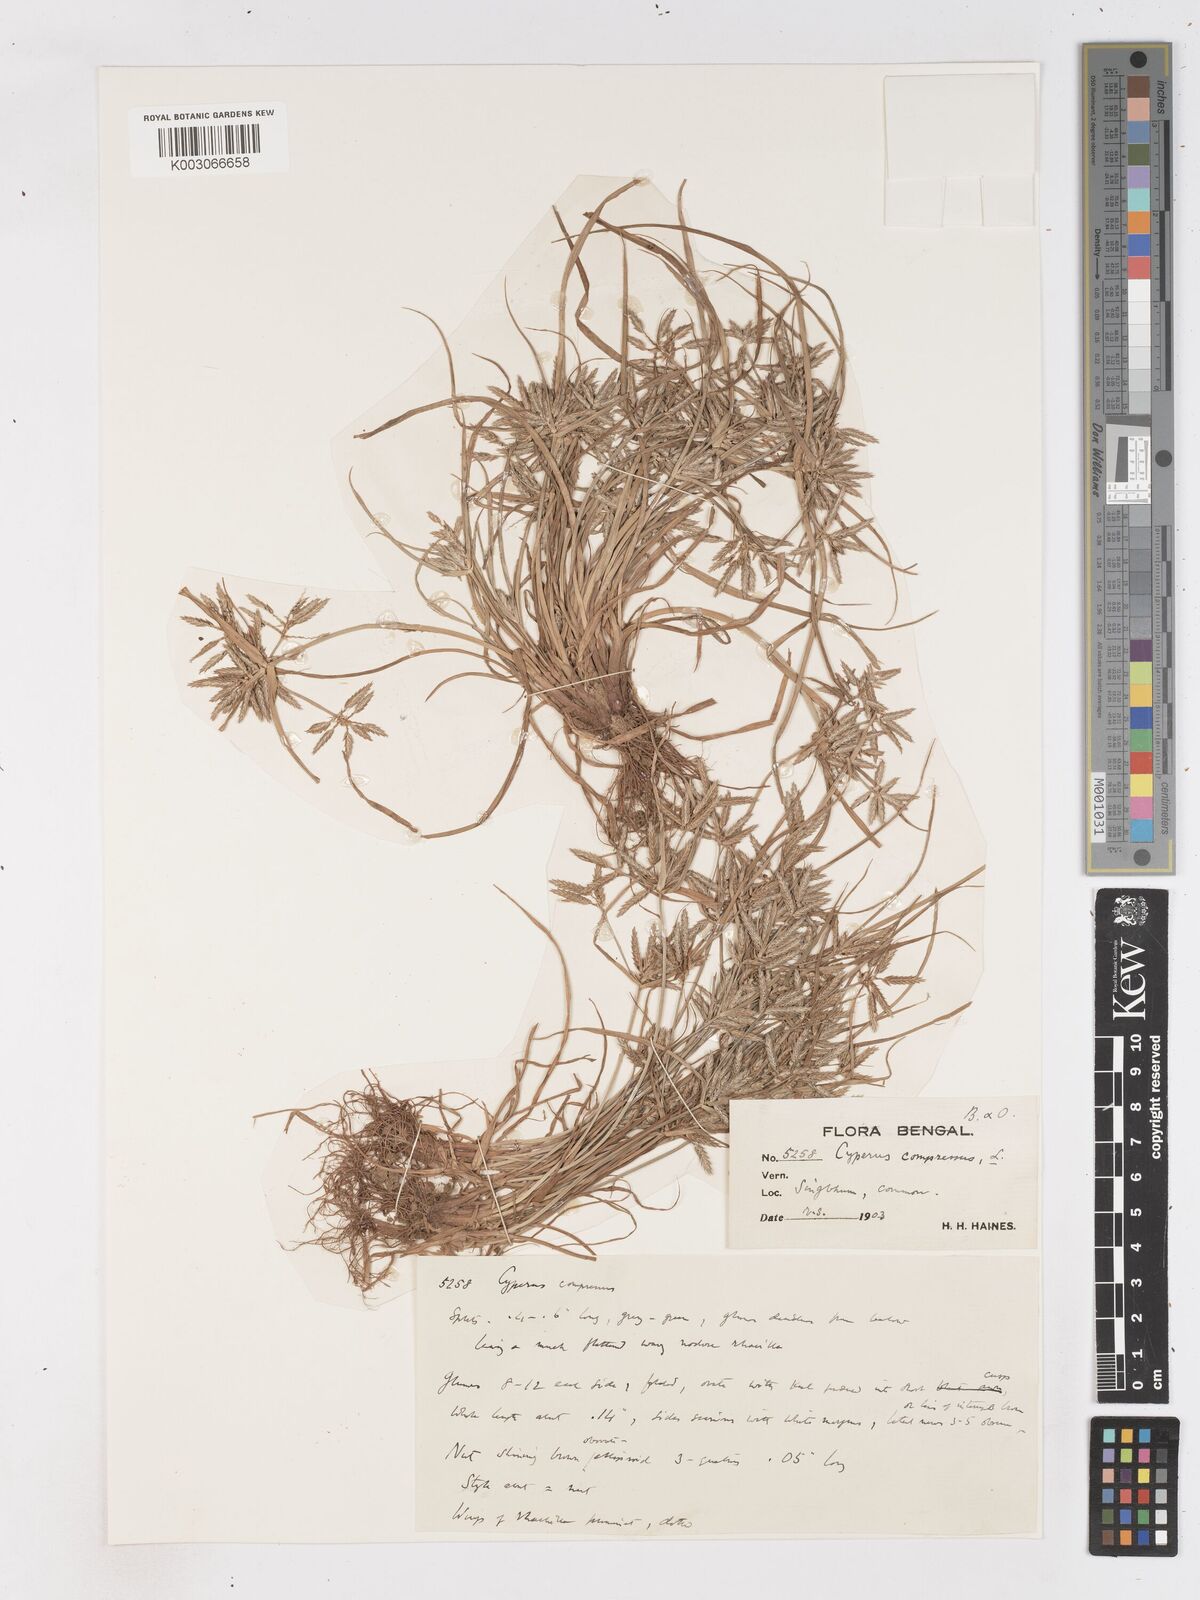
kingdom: Plantae
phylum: Tracheophyta
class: Liliopsida
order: Poales
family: Cyperaceae
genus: Cyperus
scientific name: Cyperus compressus
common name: Poorland flatsedge
